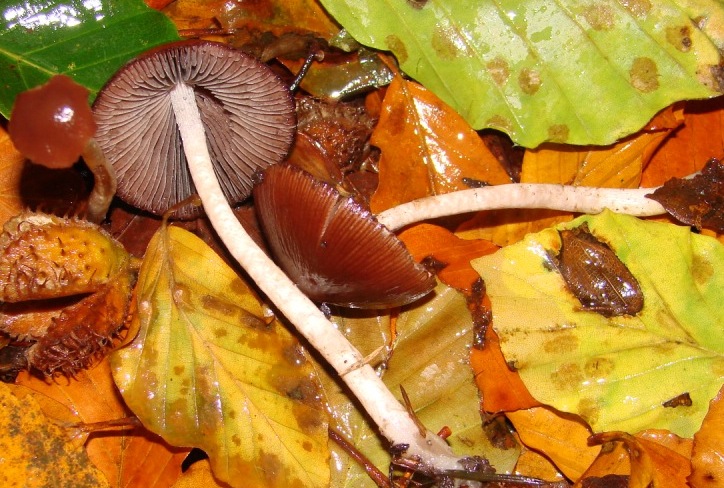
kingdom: Fungi
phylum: Basidiomycota
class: Agaricomycetes
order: Agaricales
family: Psathyrellaceae
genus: Psathyrella
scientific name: Psathyrella bipellis
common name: vinrød mørkhat
